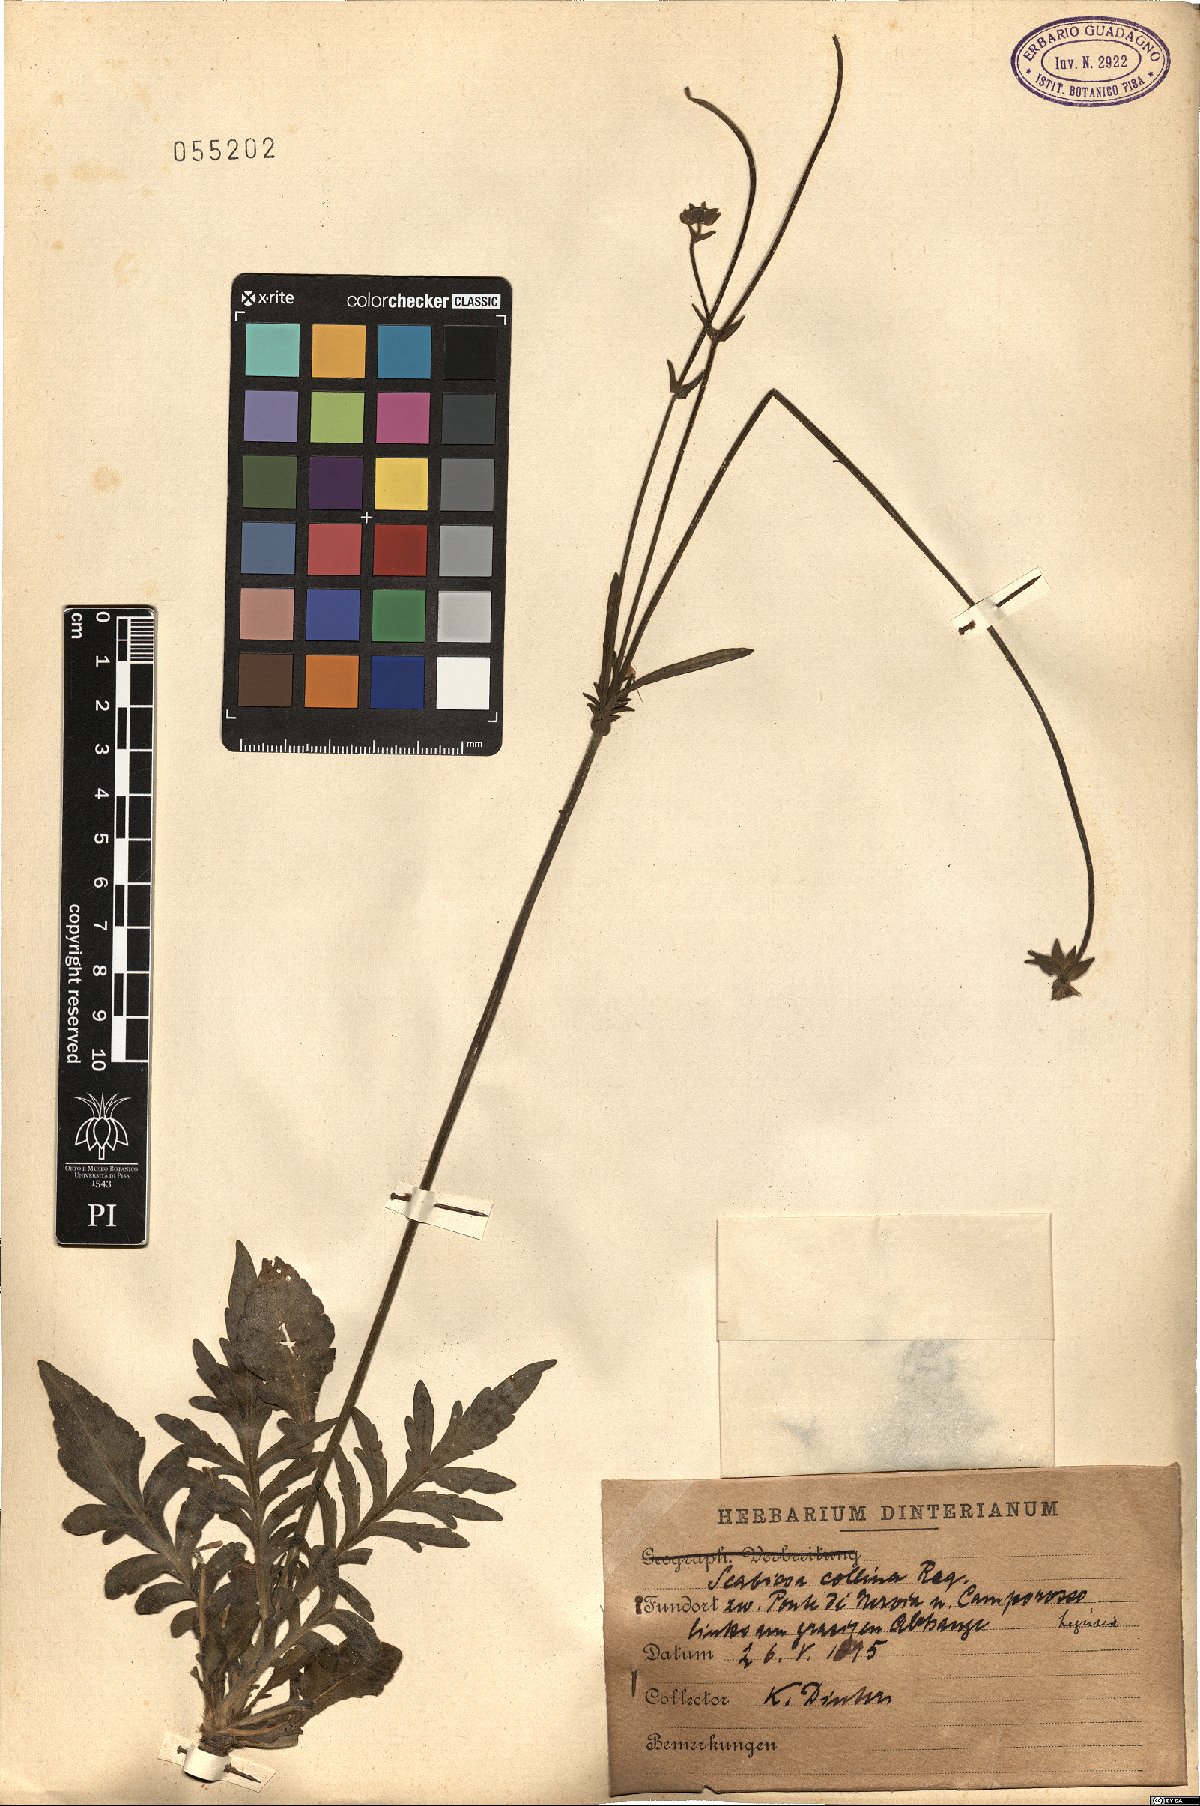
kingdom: Plantae
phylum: Tracheophyta
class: Magnoliopsida
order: Dipsacales
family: Caprifoliaceae
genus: Knautia
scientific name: Knautia collina
